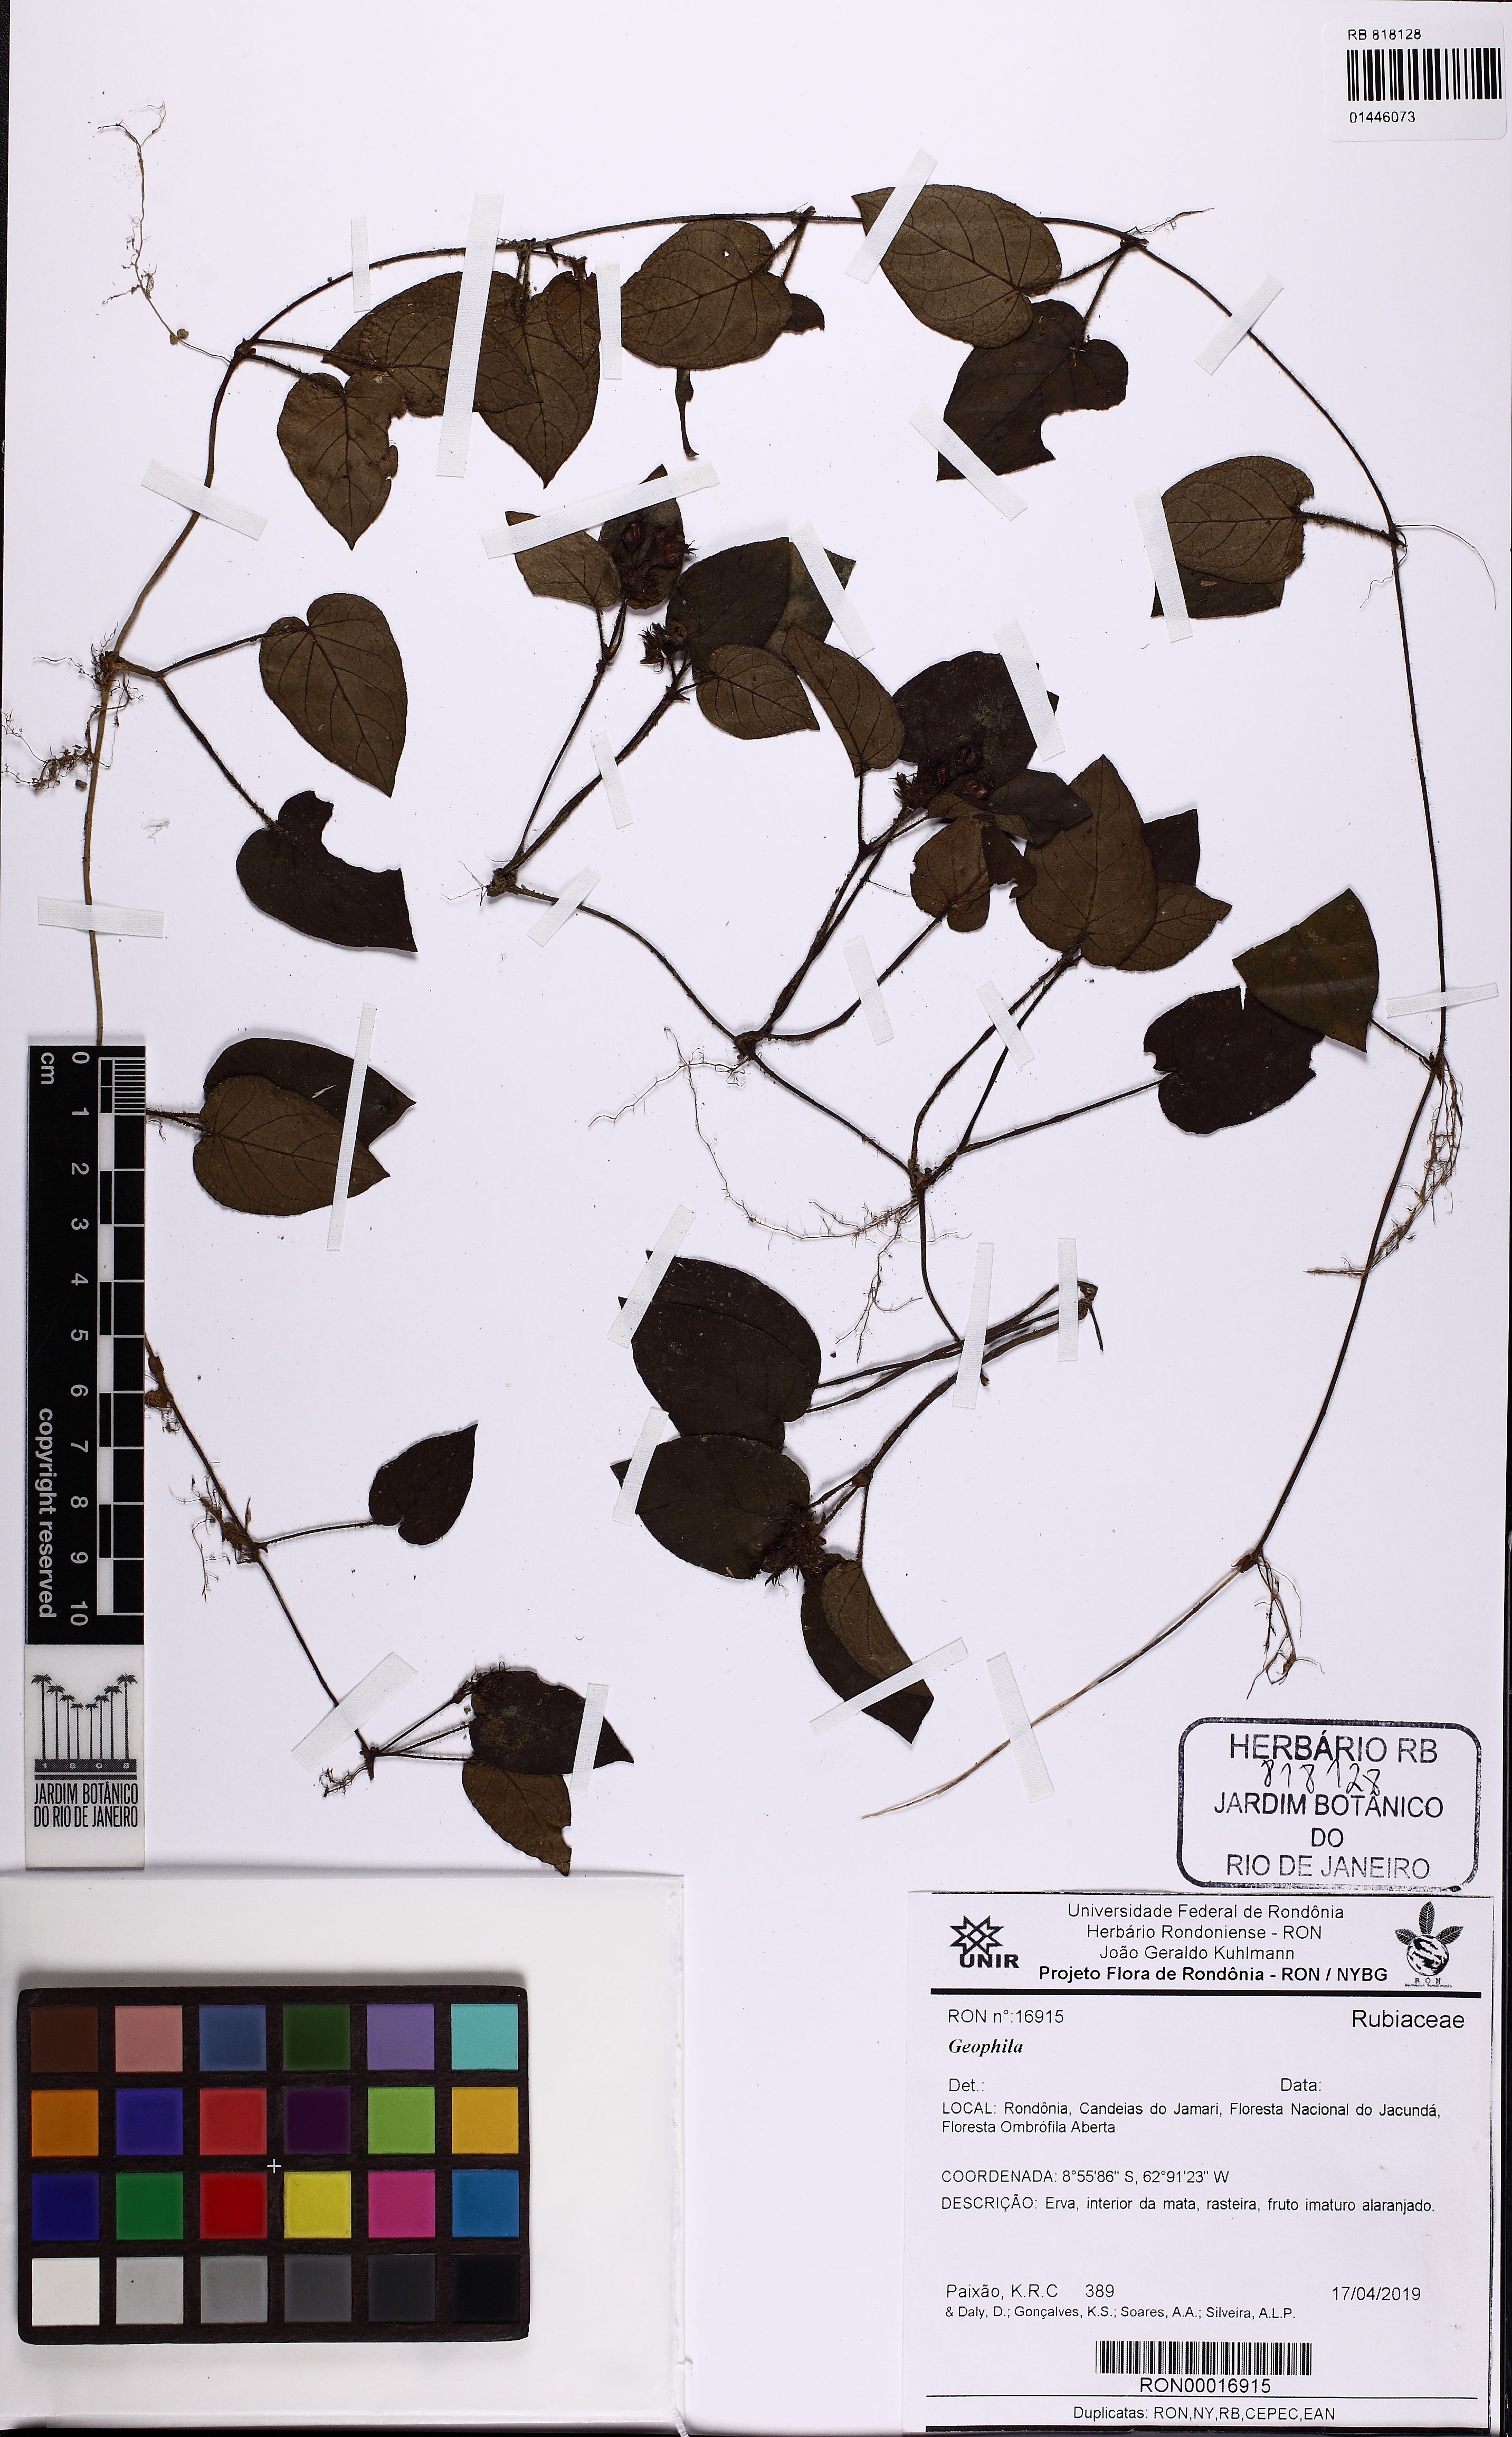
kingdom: Plantae
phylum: Tracheophyta
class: Magnoliopsida
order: Gentianales
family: Rubiaceae
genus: Geophila
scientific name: Geophila
